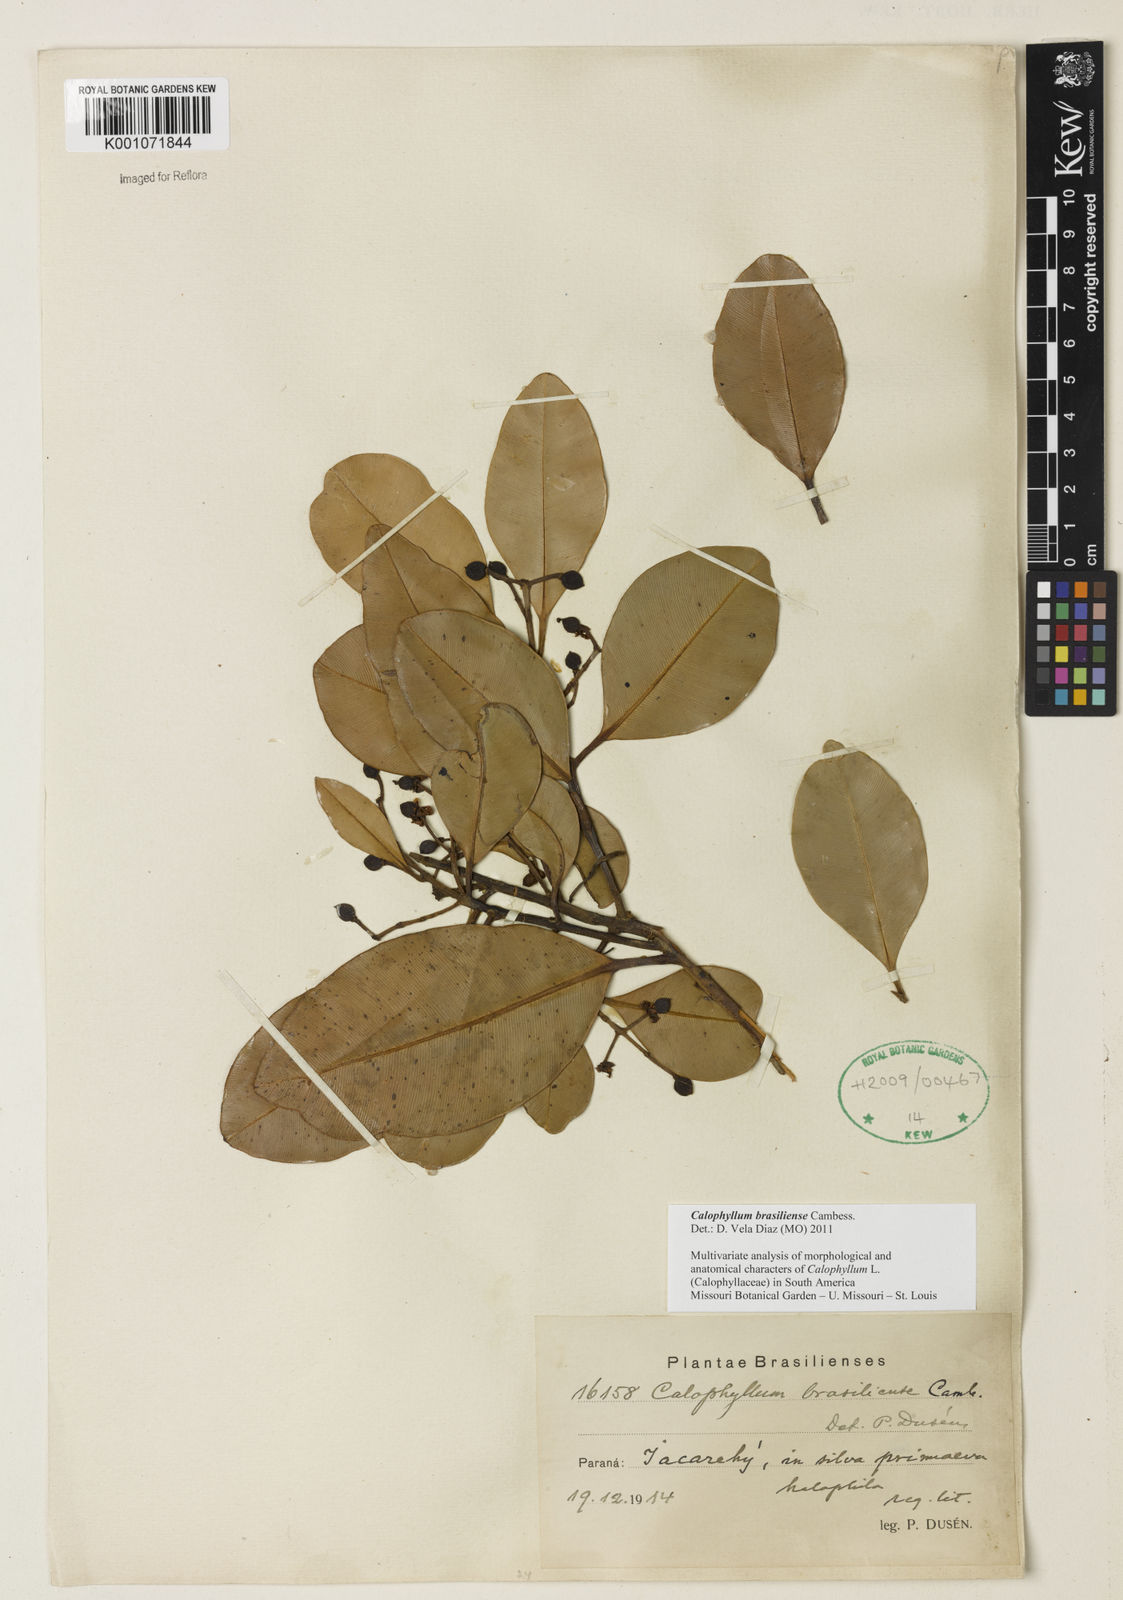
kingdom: Plantae
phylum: Tracheophyta
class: Magnoliopsida
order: Malpighiales
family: Calophyllaceae
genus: Calophyllum
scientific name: Calophyllum brasiliense
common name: Santa maria
